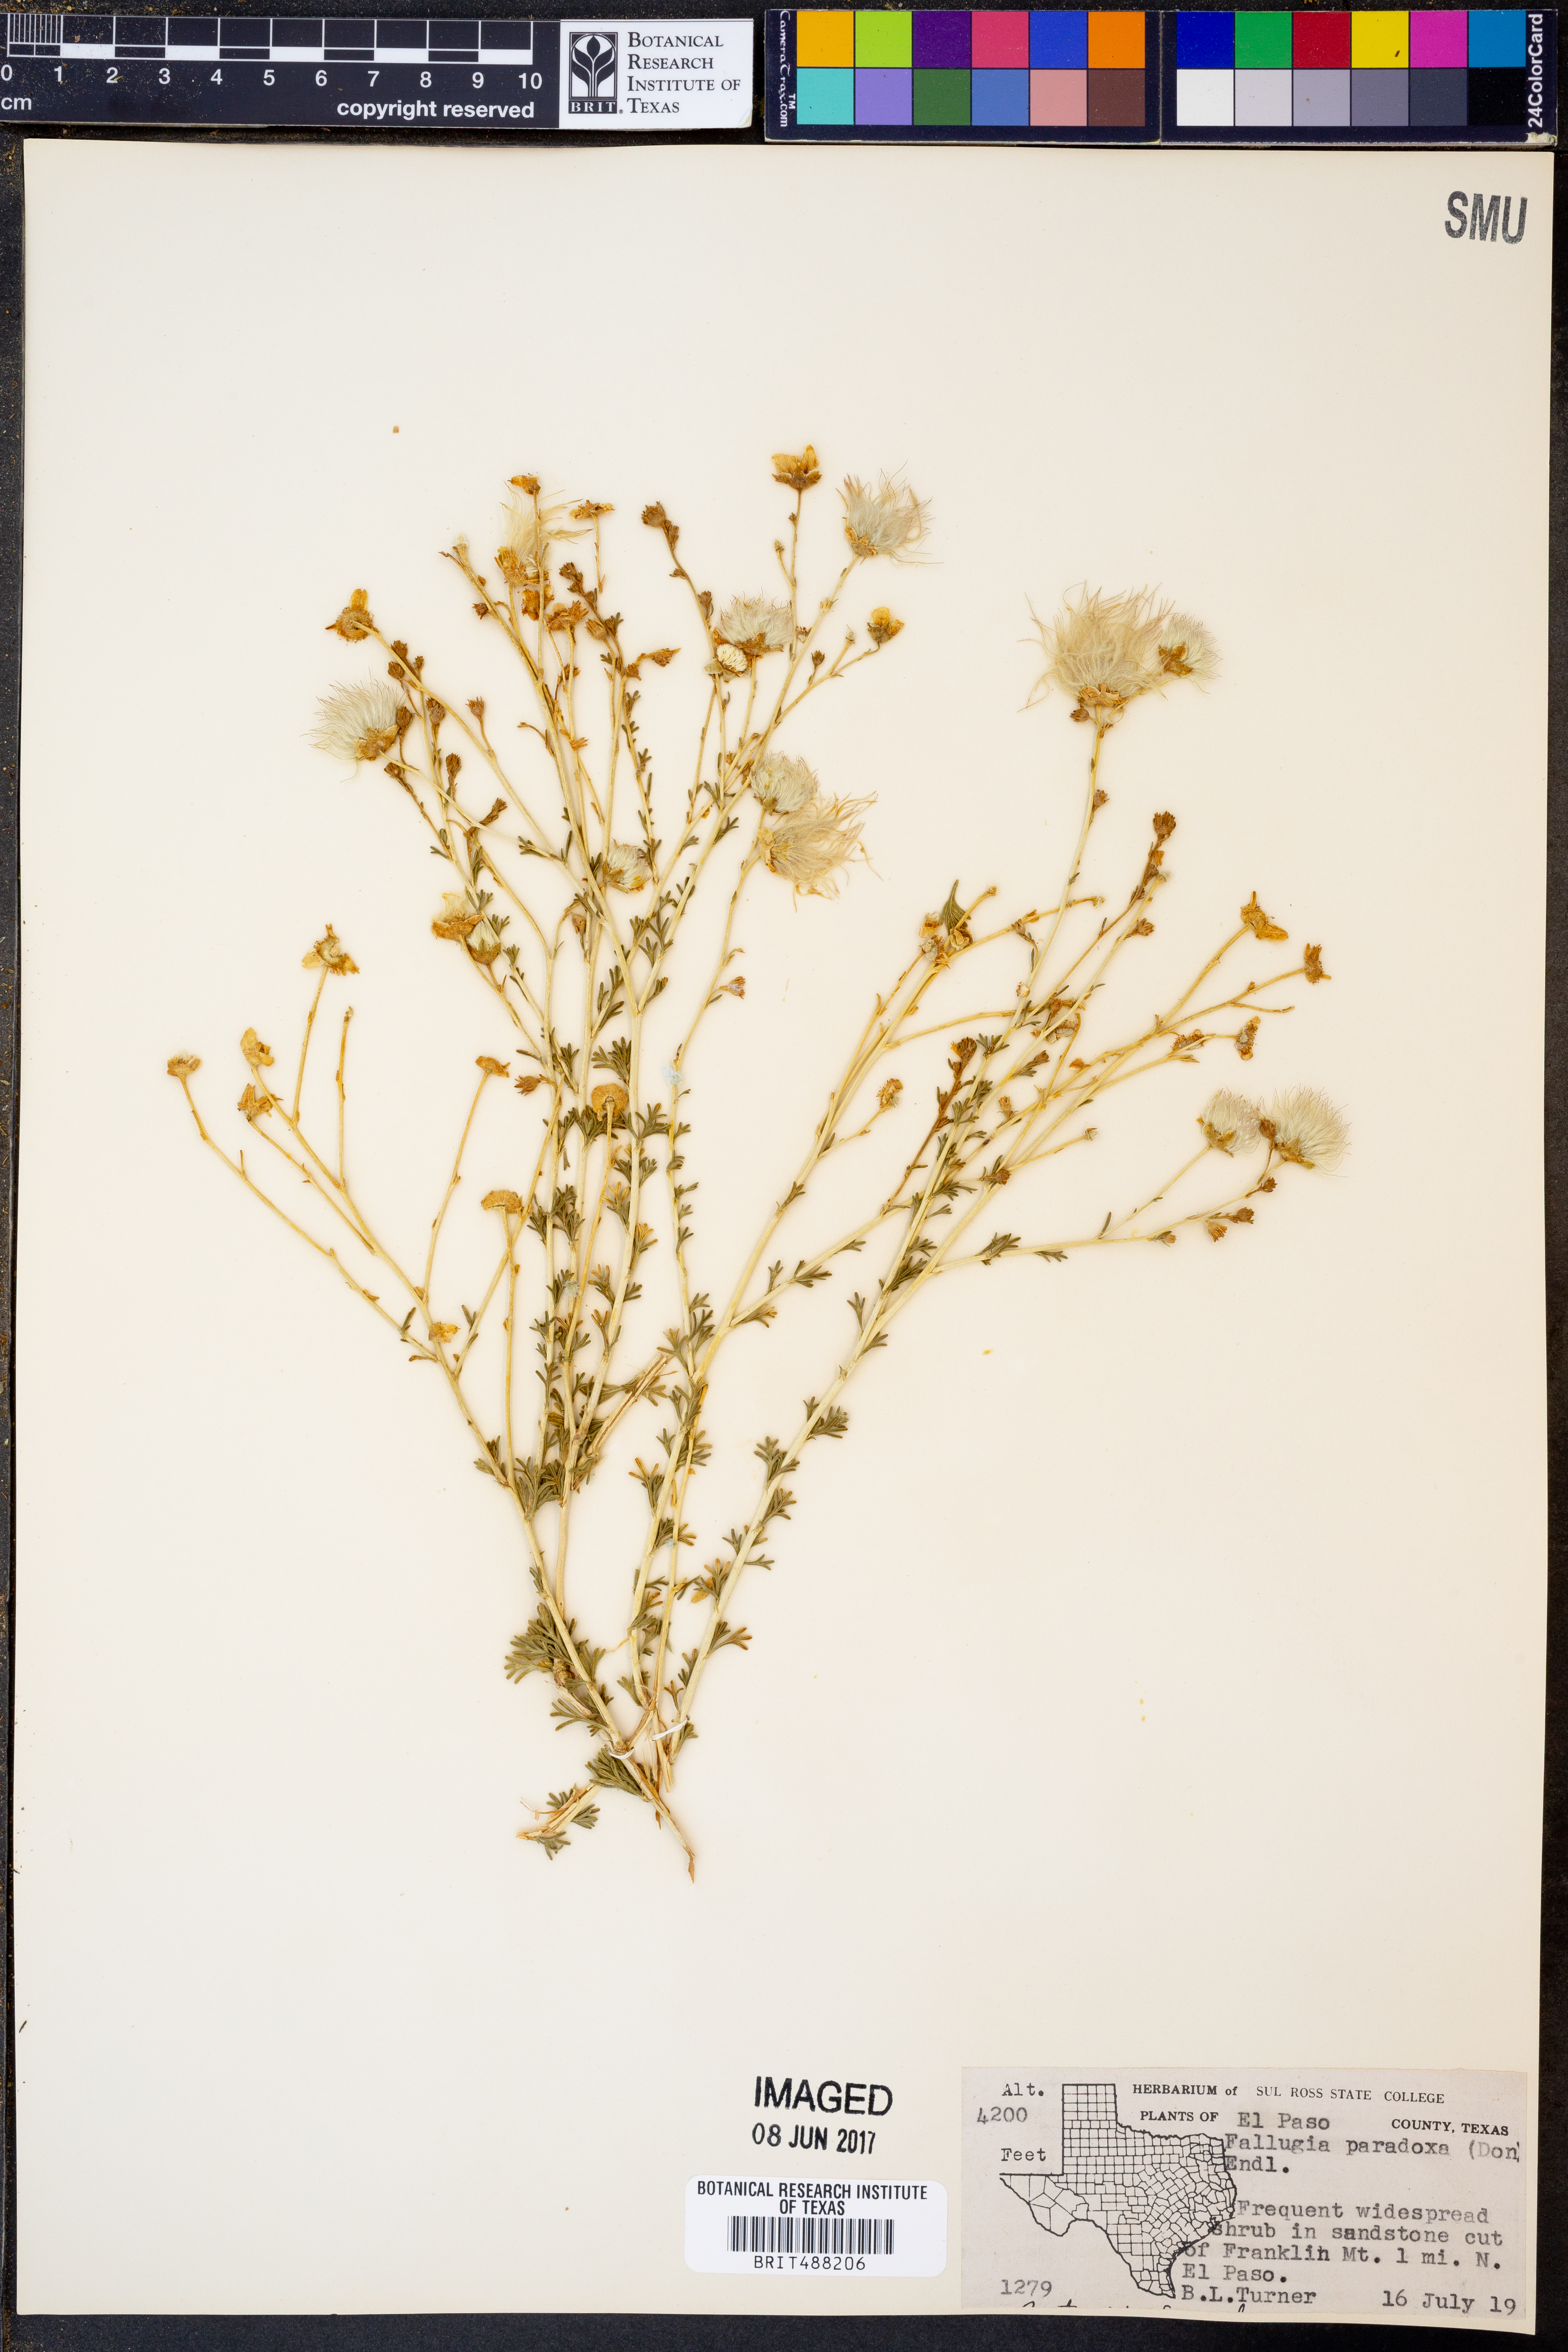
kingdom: Plantae
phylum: Tracheophyta
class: Magnoliopsida
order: Rosales
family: Rosaceae
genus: Fallugia
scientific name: Fallugia paradoxa
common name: Apache-plume
